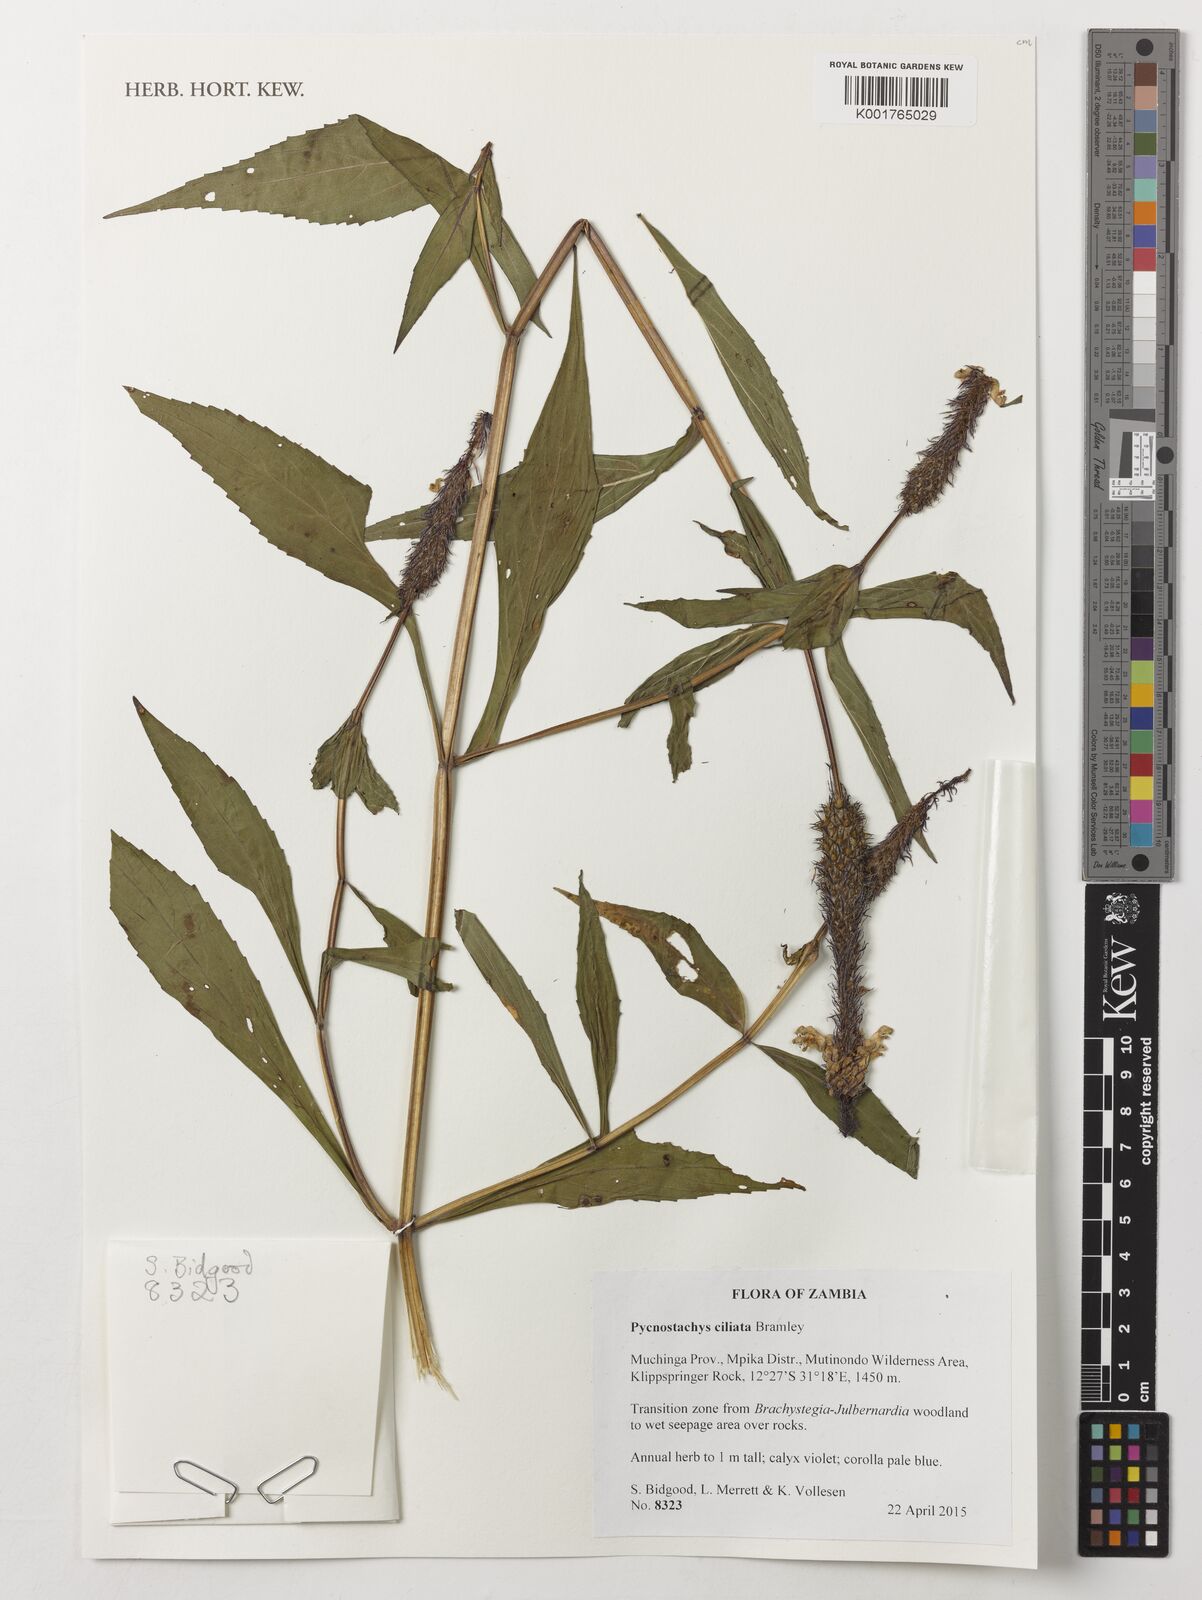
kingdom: Plantae
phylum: Tracheophyta
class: Magnoliopsida
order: Lamiales
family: Lamiaceae
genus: Coleus
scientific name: Coleus ciliatus
